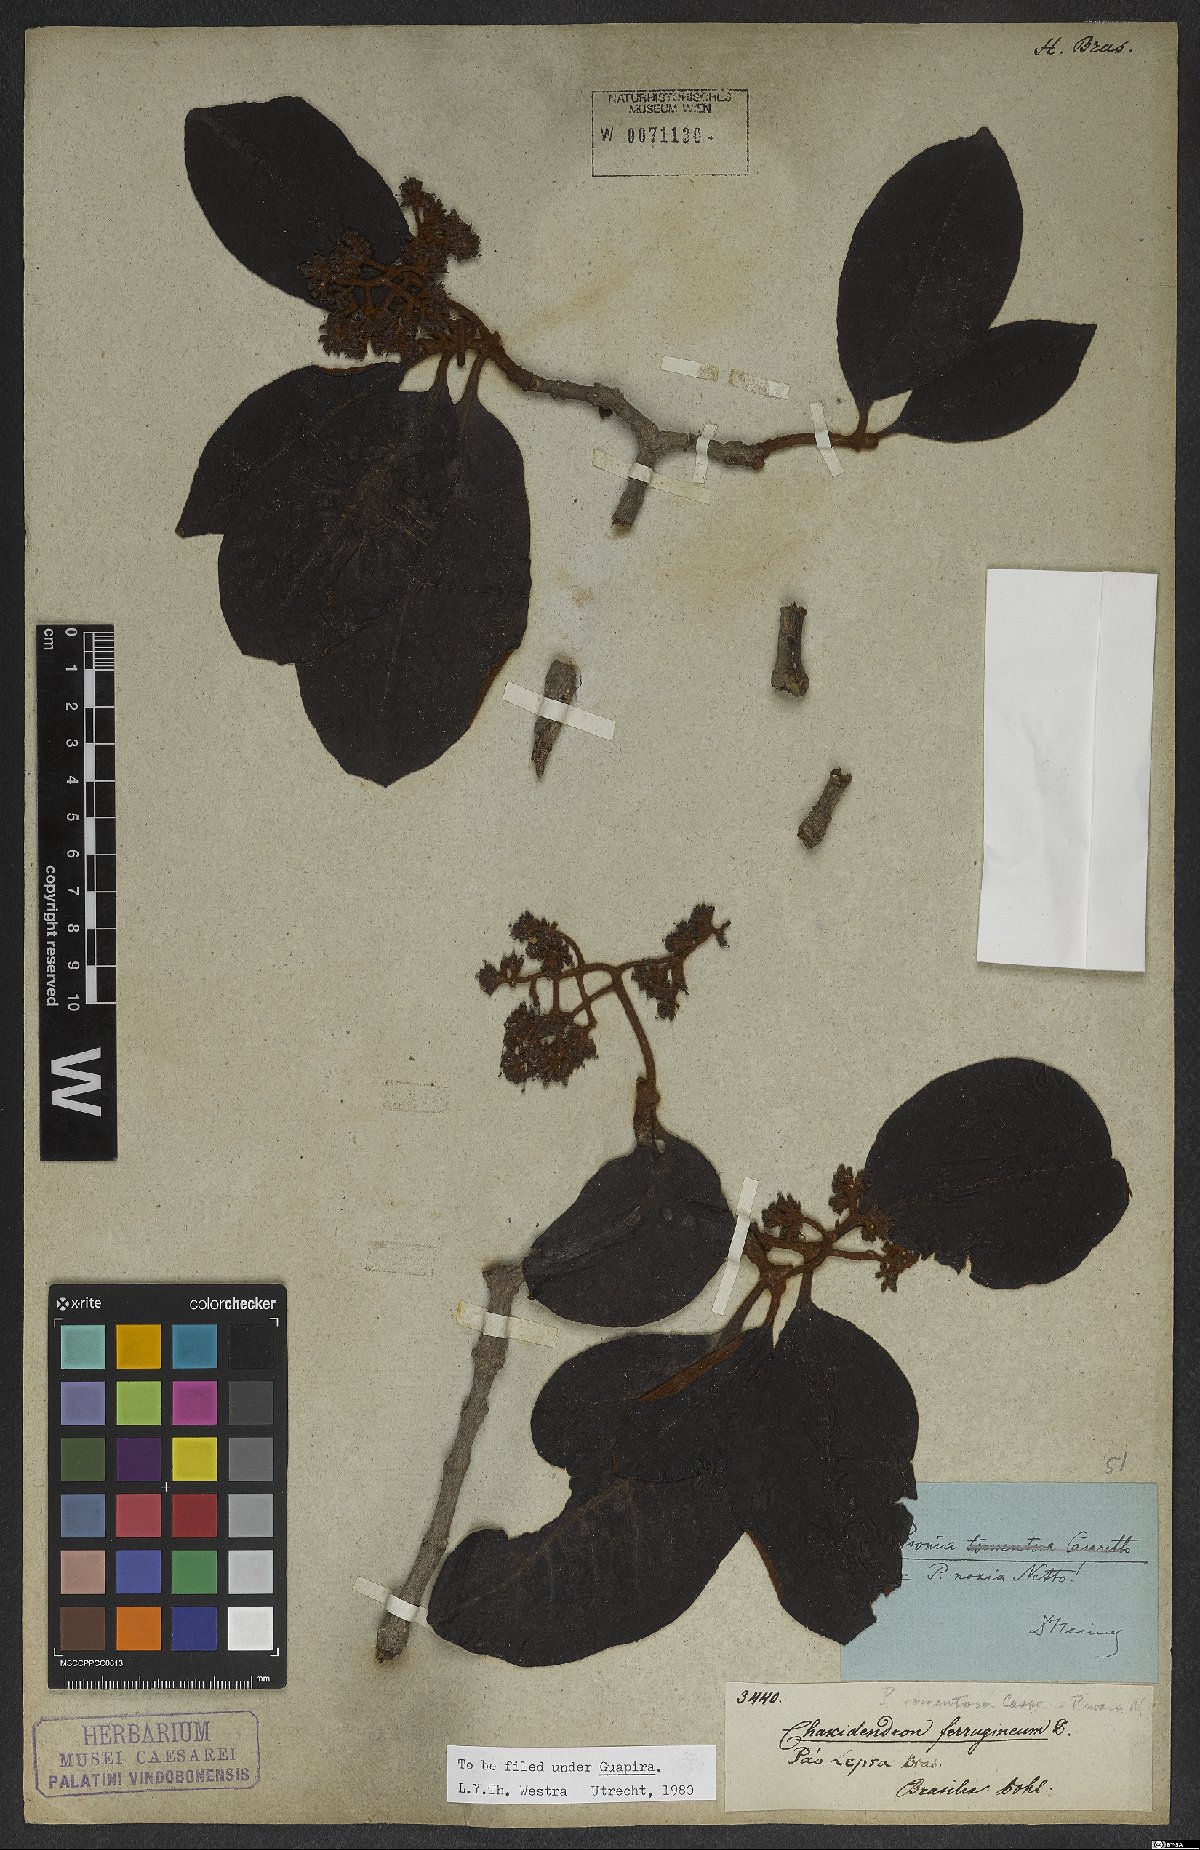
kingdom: Plantae
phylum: Tracheophyta
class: Magnoliopsida
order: Caryophyllales
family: Nyctaginaceae
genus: Guapira
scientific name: Guapira noxia
